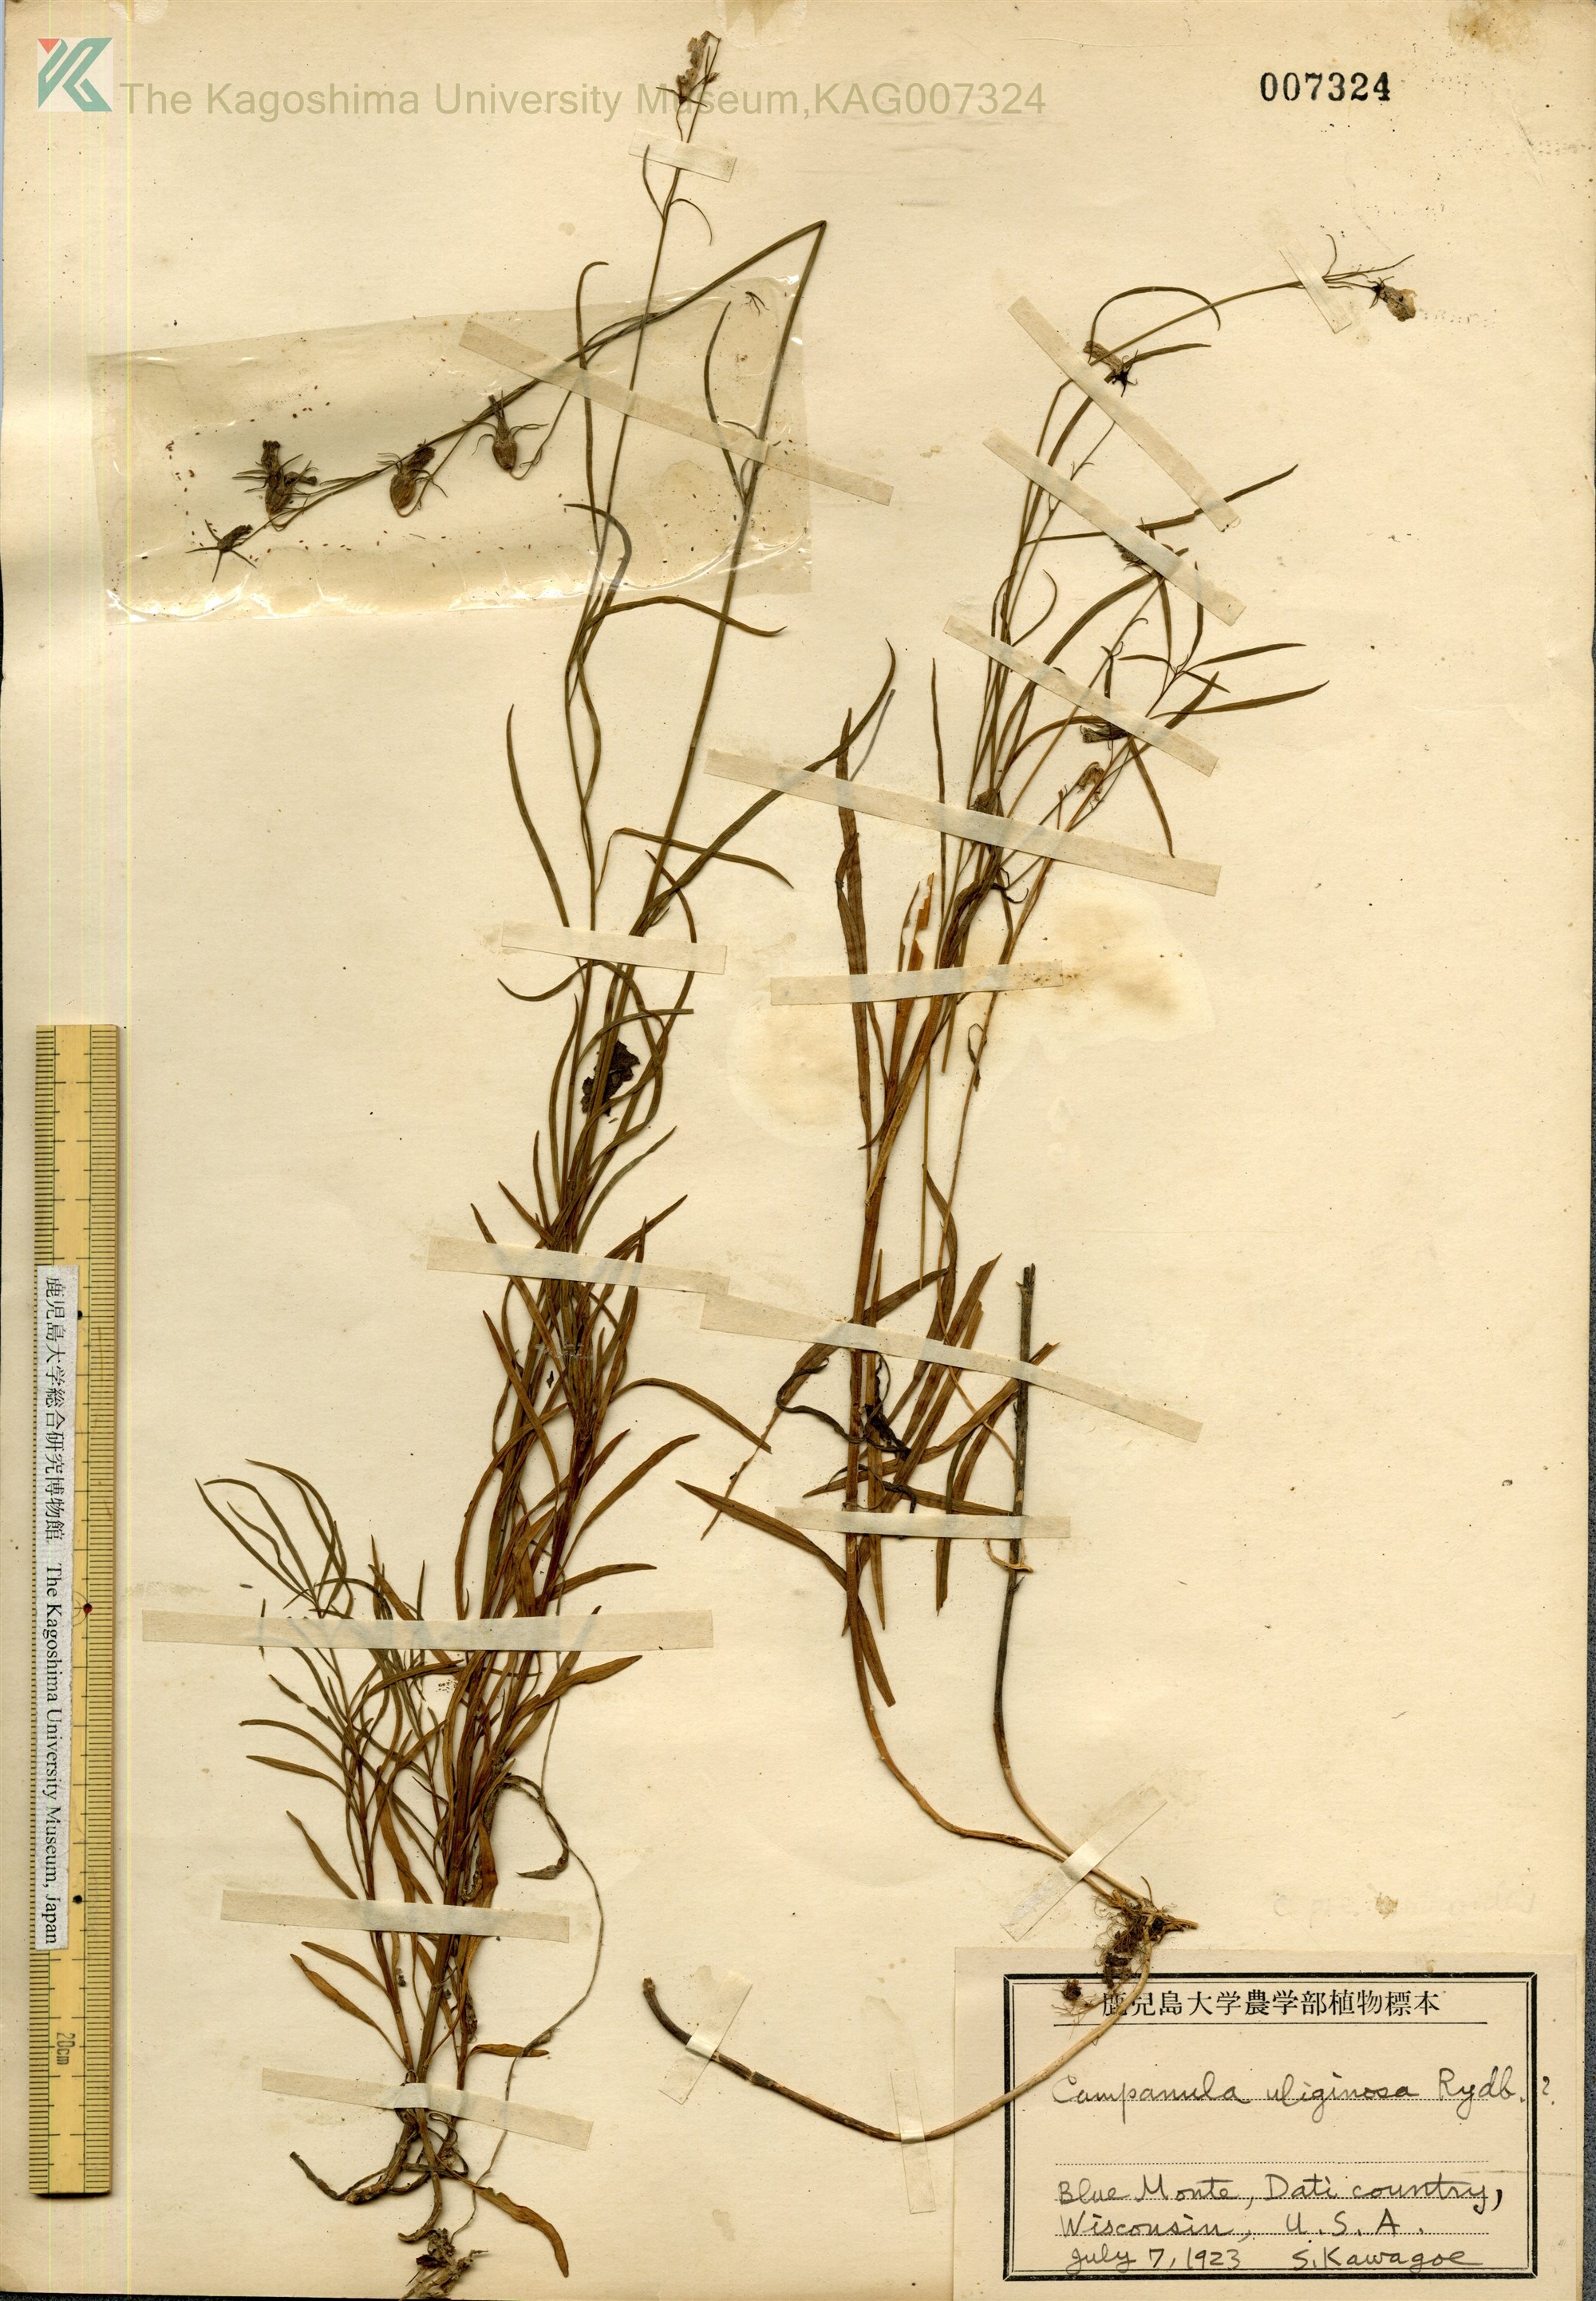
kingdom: Plantae
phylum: Tracheophyta
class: Magnoliopsida
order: Asterales
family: Campanulaceae
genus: Palustricodon
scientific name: Palustricodon aparinoides
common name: Bedstraw bellflower
